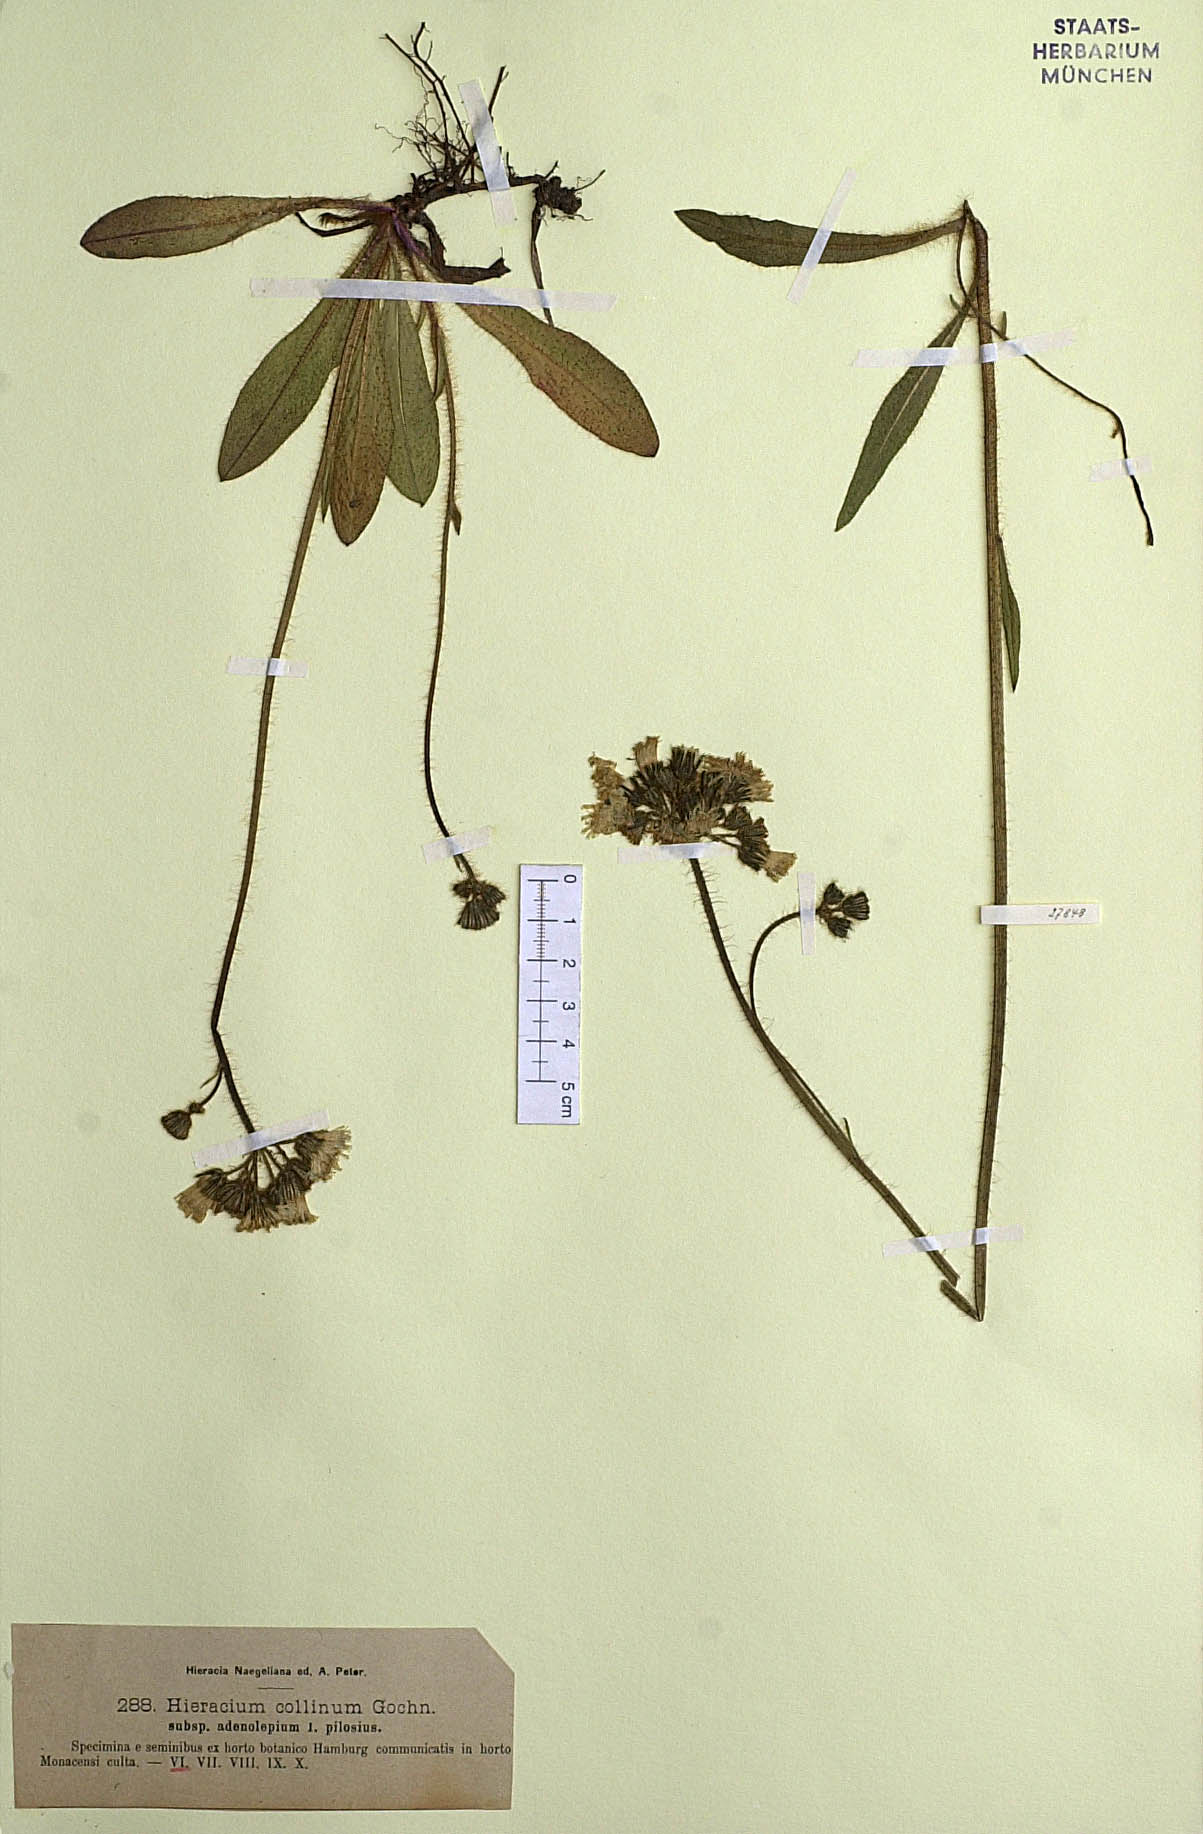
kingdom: Plantae
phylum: Tracheophyta
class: Magnoliopsida
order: Asterales
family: Asteraceae
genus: Pilosella
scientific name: Pilosella caespitosa
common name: Yellow fox-and-cubs
